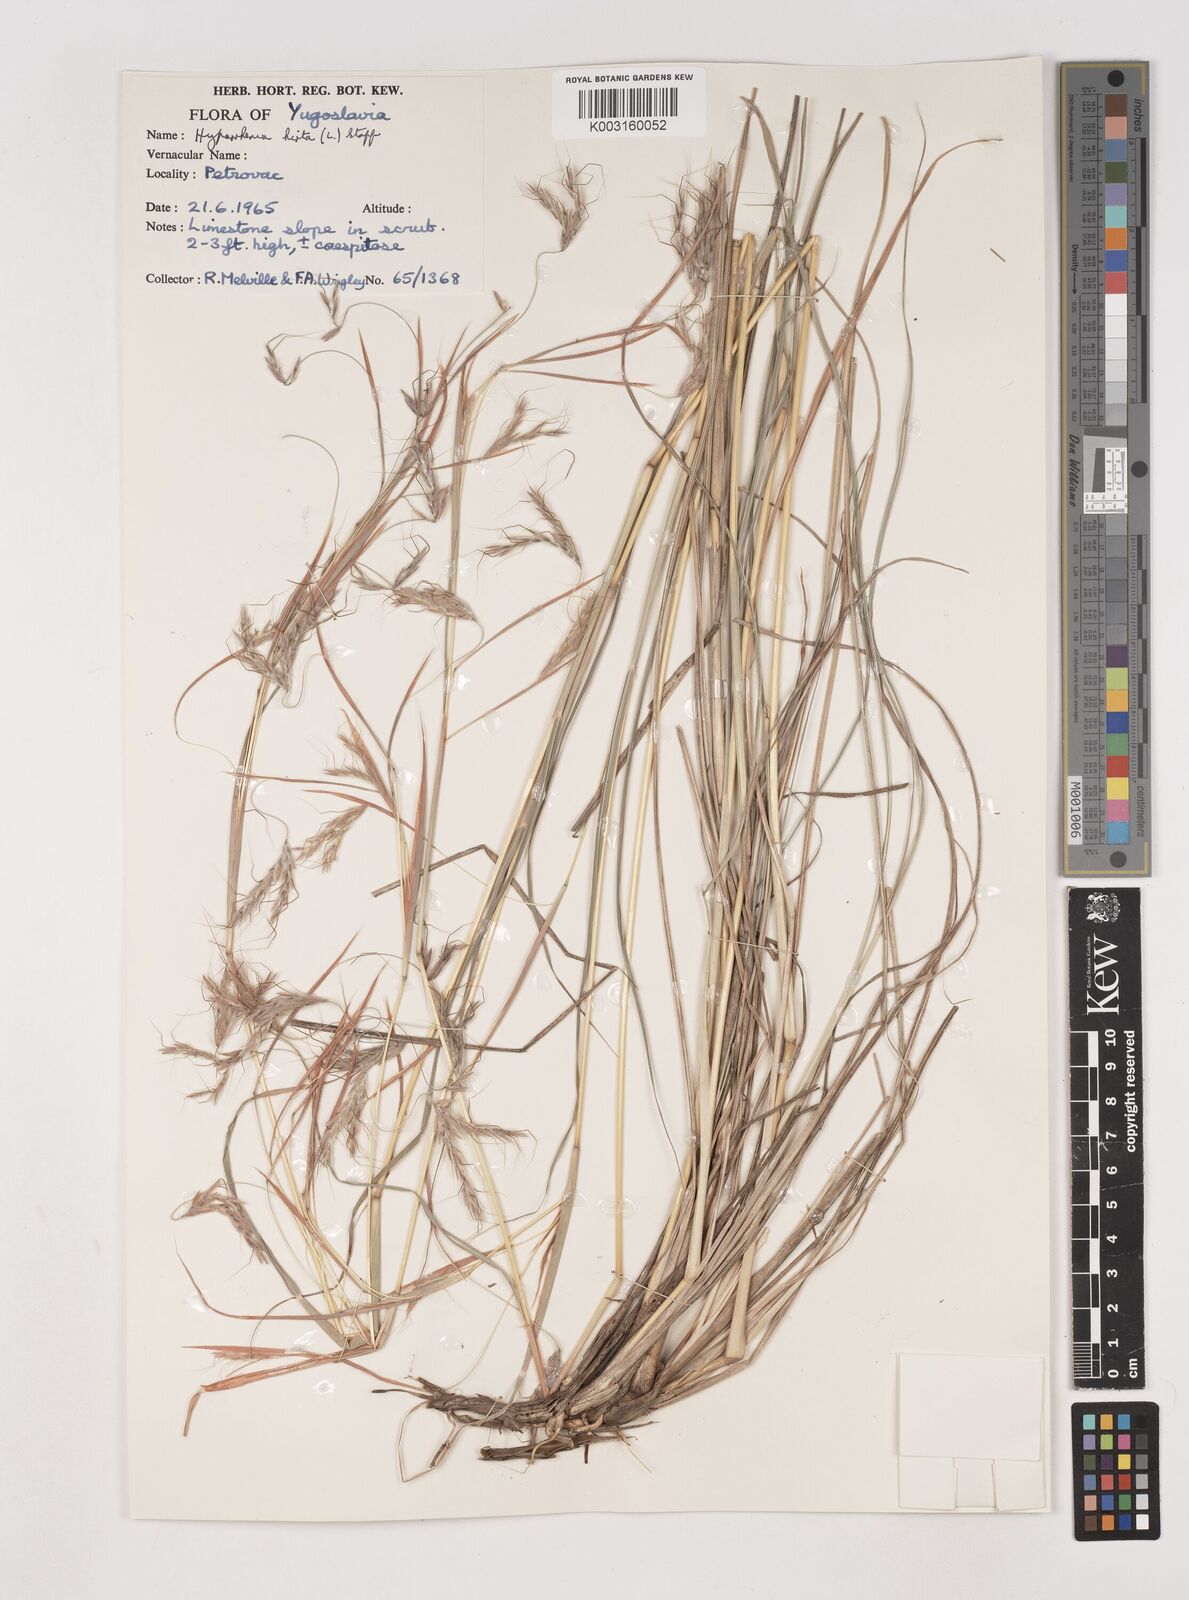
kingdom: Plantae
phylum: Tracheophyta
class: Liliopsida
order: Poales
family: Poaceae
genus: Hyparrhenia
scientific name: Hyparrhenia hirta
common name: Thatching grass
